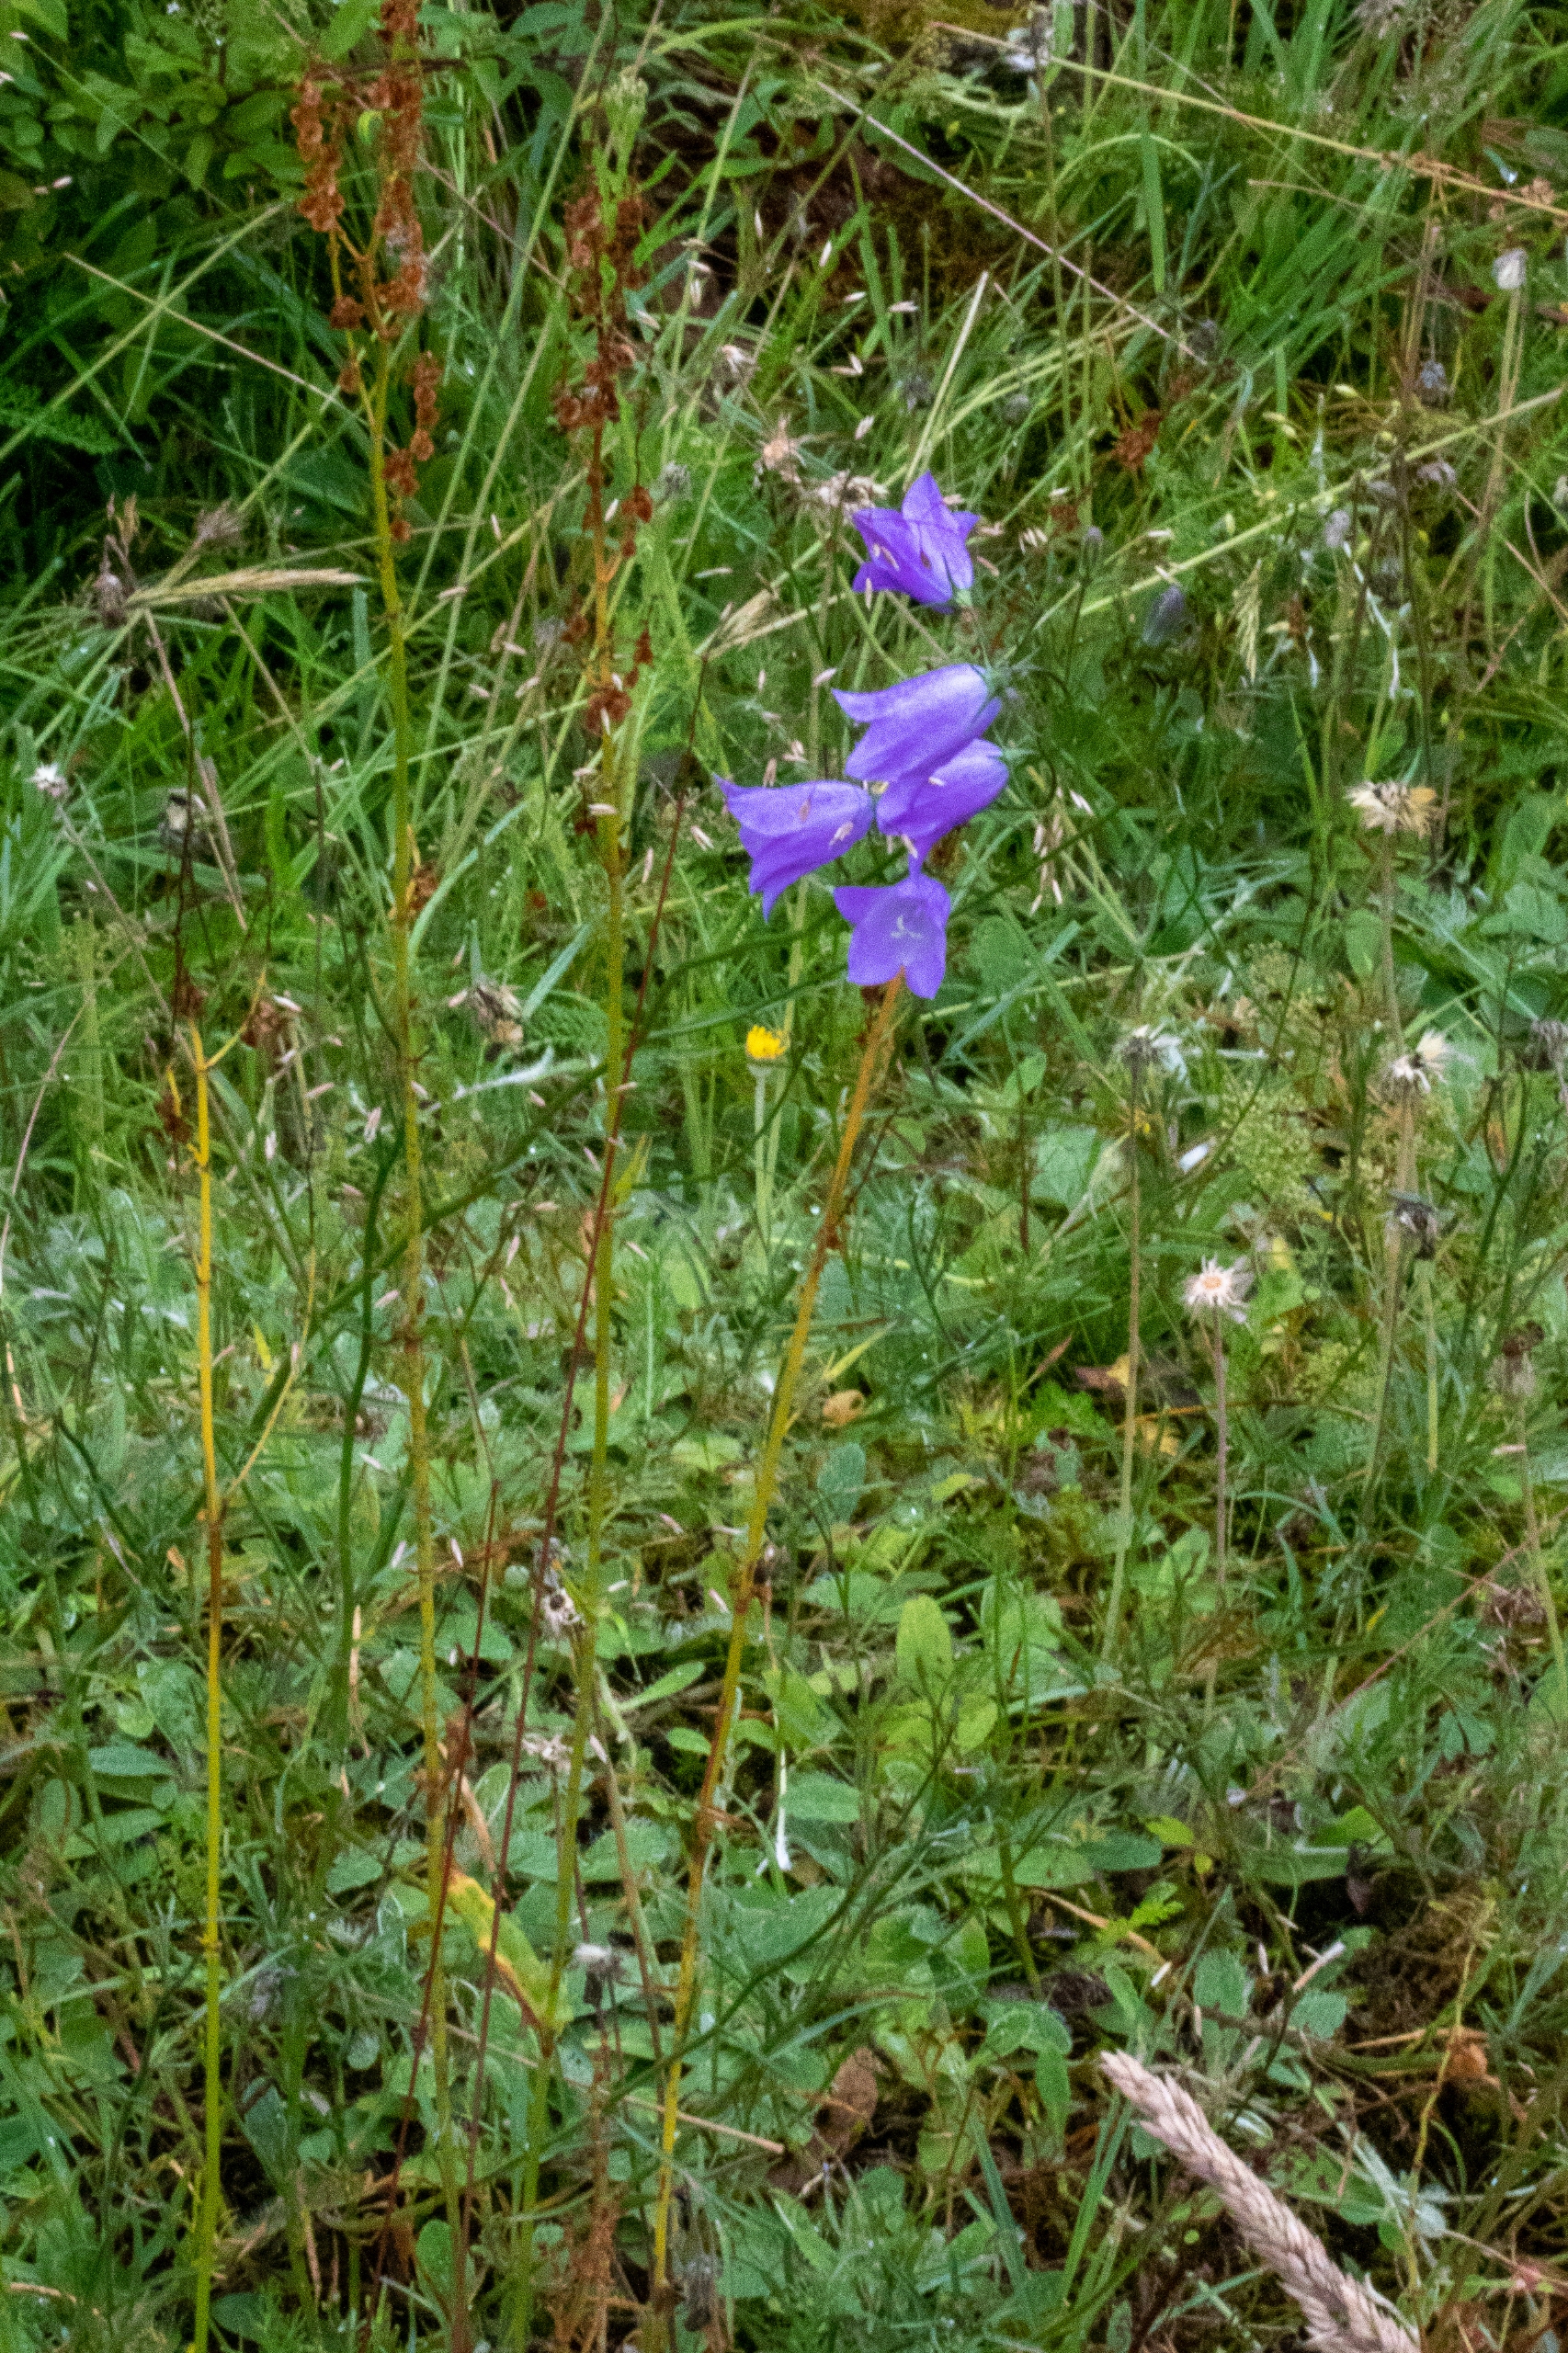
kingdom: Plantae
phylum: Tracheophyta
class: Magnoliopsida
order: Asterales
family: Campanulaceae
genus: Campanula
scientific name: Campanula rotundifolia
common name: Liden klokke
